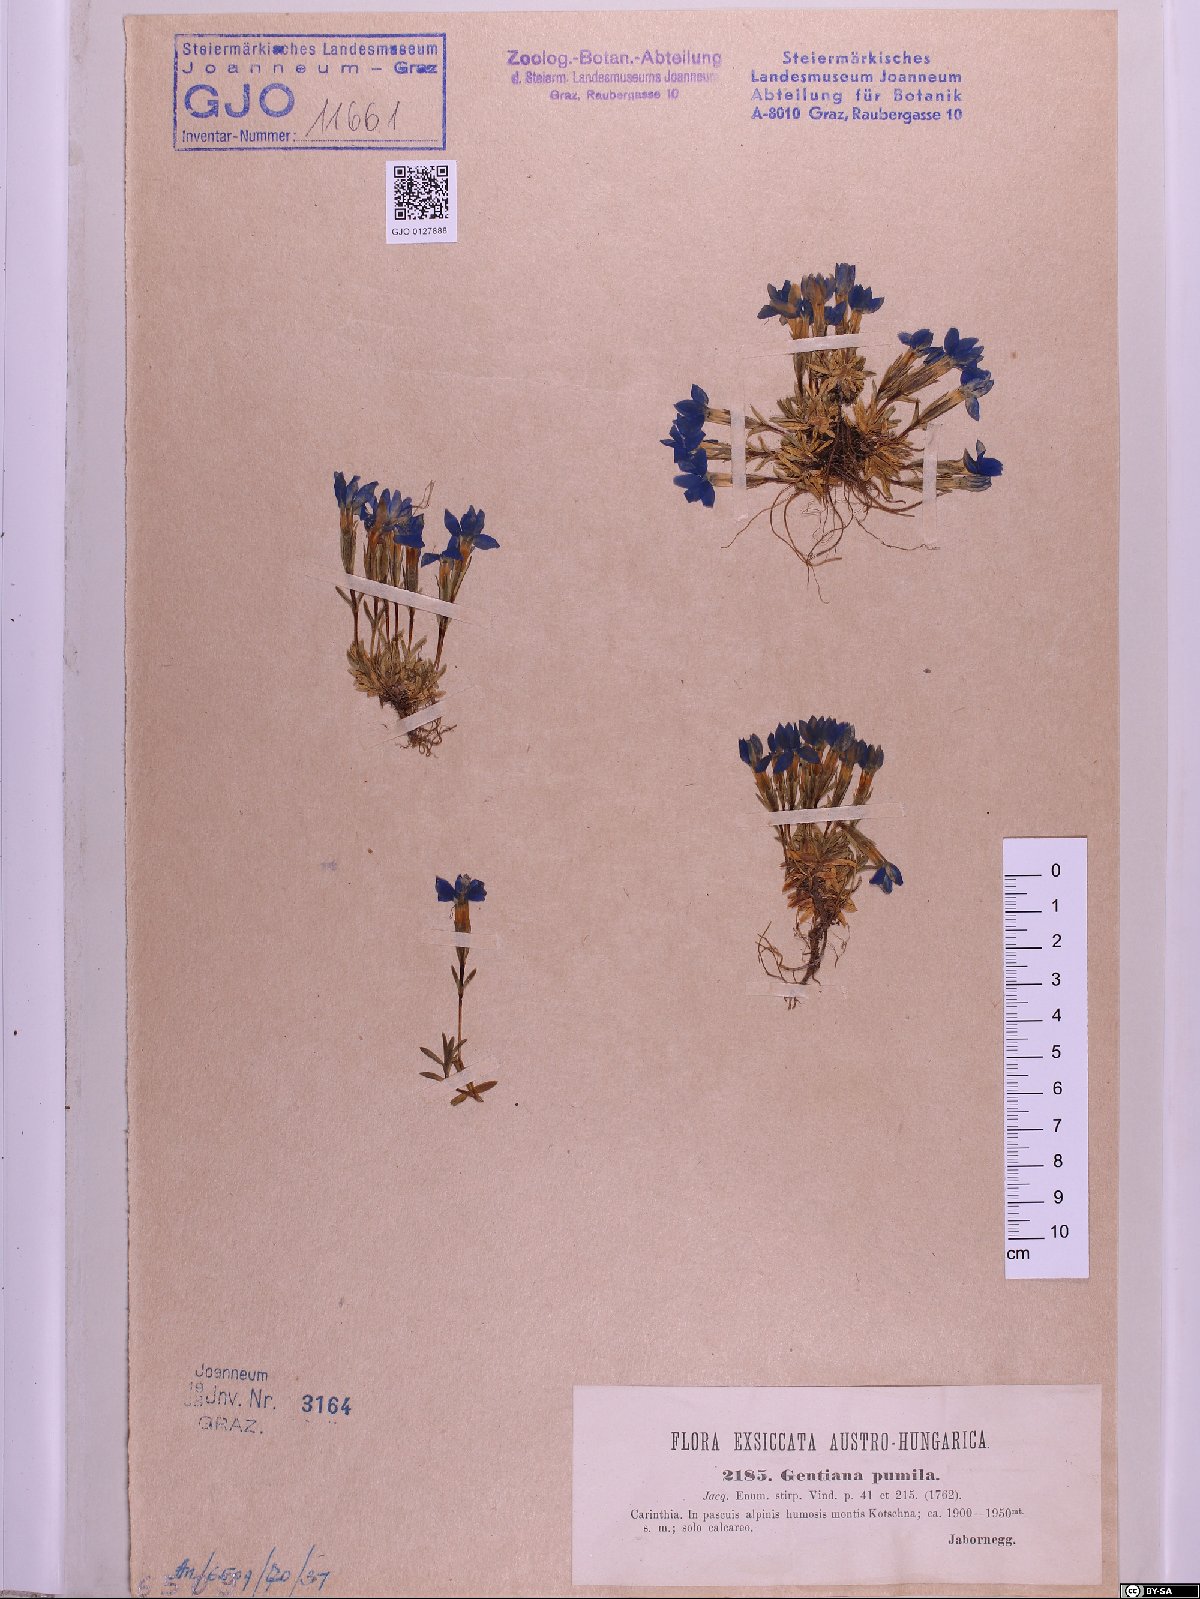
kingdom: Plantae
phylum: Tracheophyta
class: Magnoliopsida
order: Gentianales
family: Gentianaceae
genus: Gentiana
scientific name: Gentiana pumila
